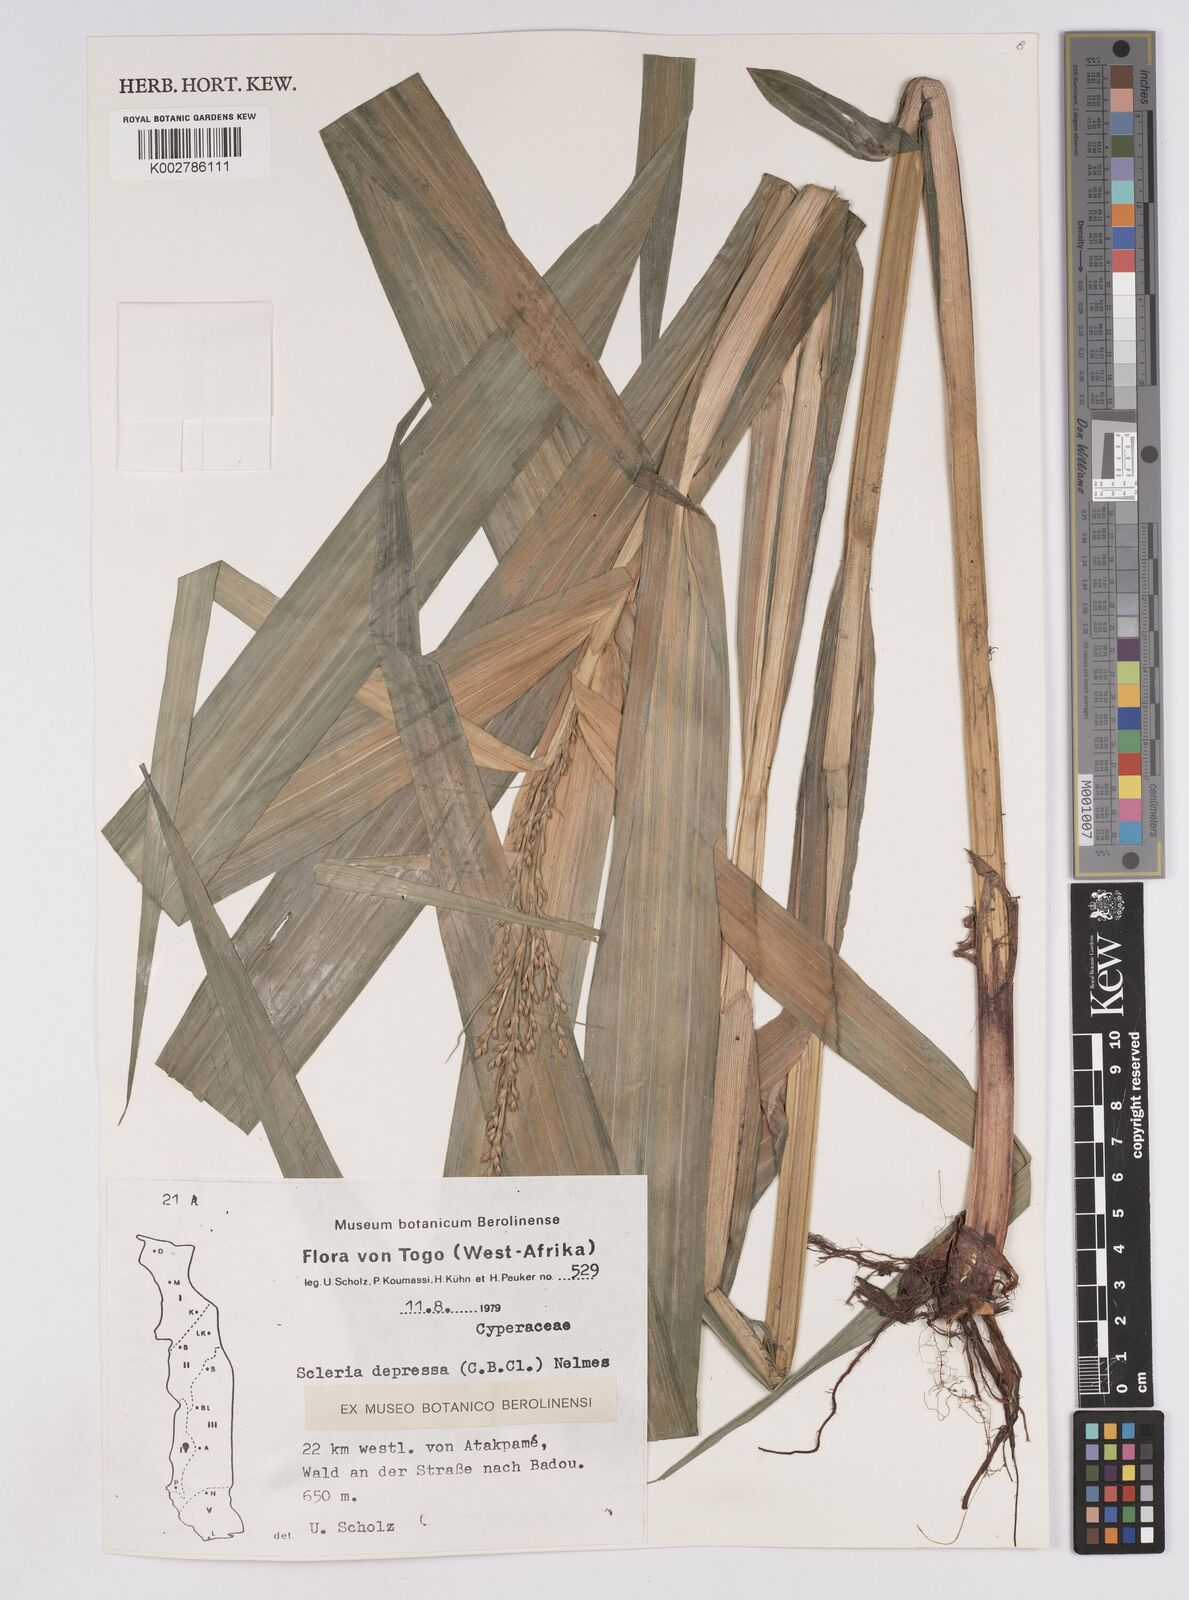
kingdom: Plantae
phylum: Tracheophyta
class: Liliopsida
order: Poales
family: Cyperaceae
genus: Scleria
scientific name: Scleria depressa
